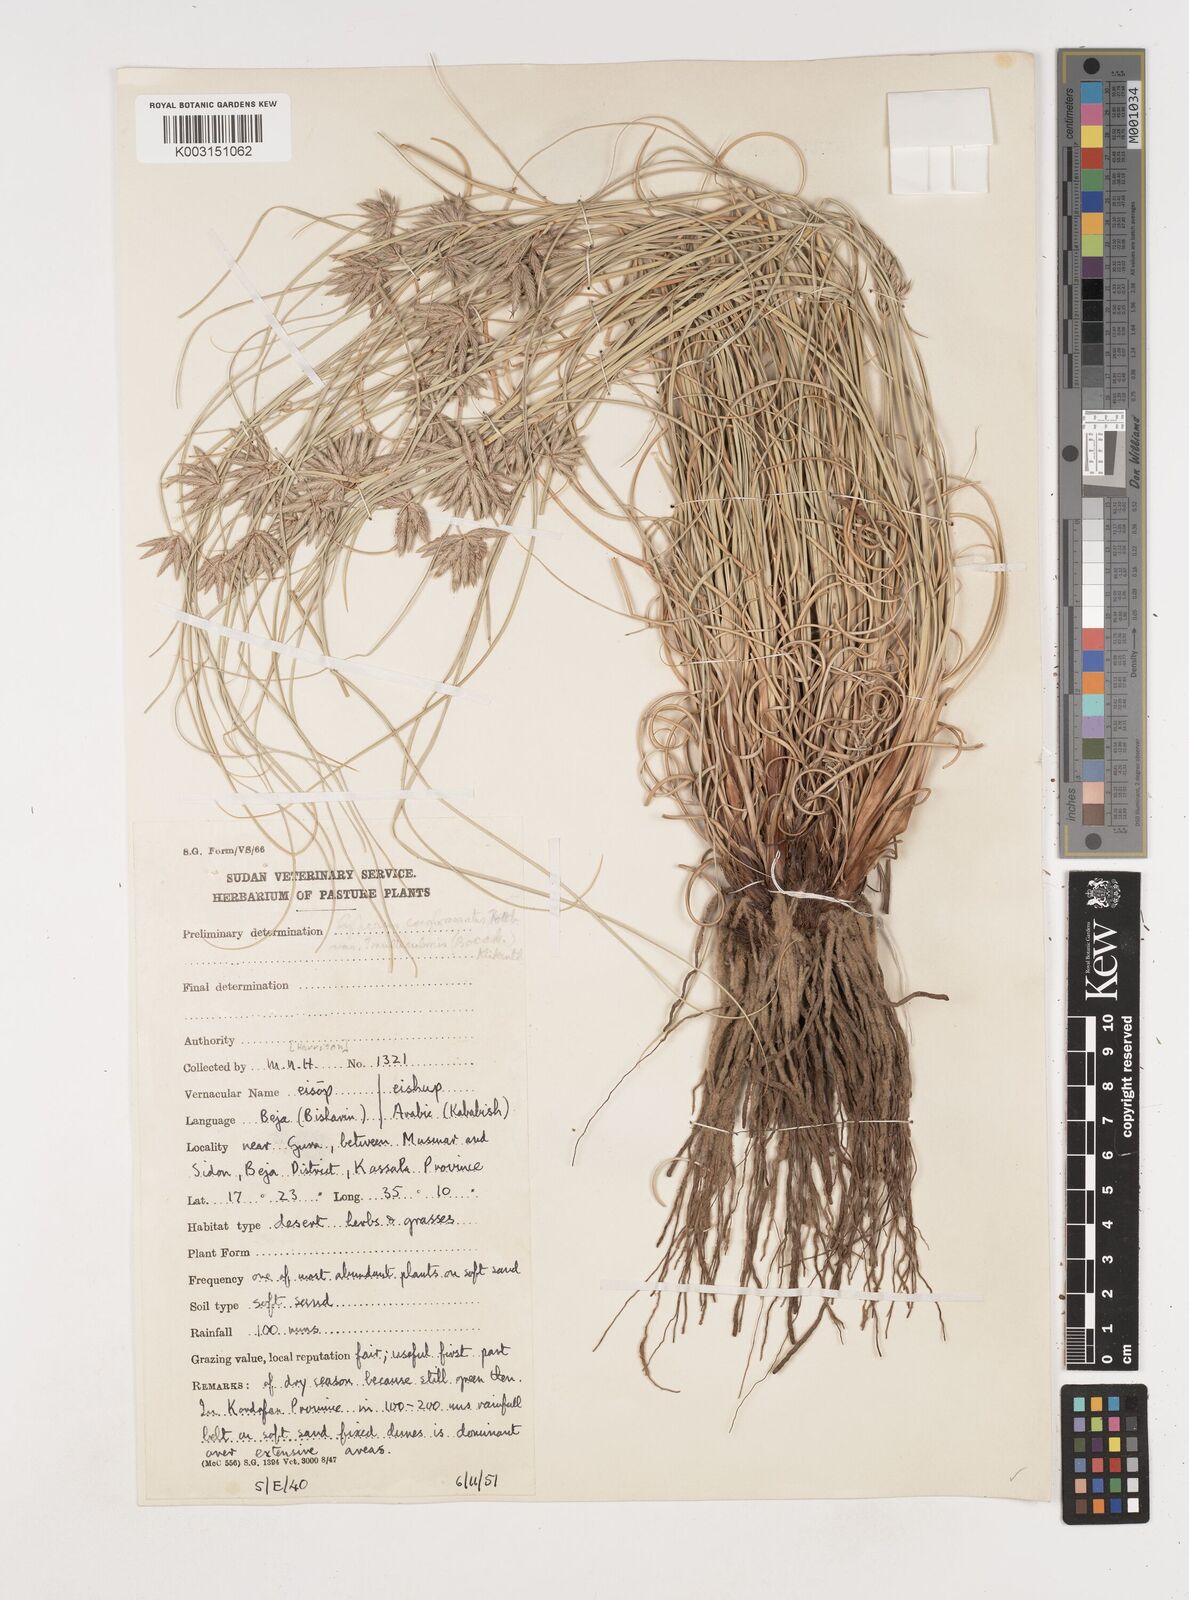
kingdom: Plantae
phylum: Tracheophyta
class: Liliopsida
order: Poales
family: Cyperaceae
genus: Cyperus
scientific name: Cyperus jeminicus
